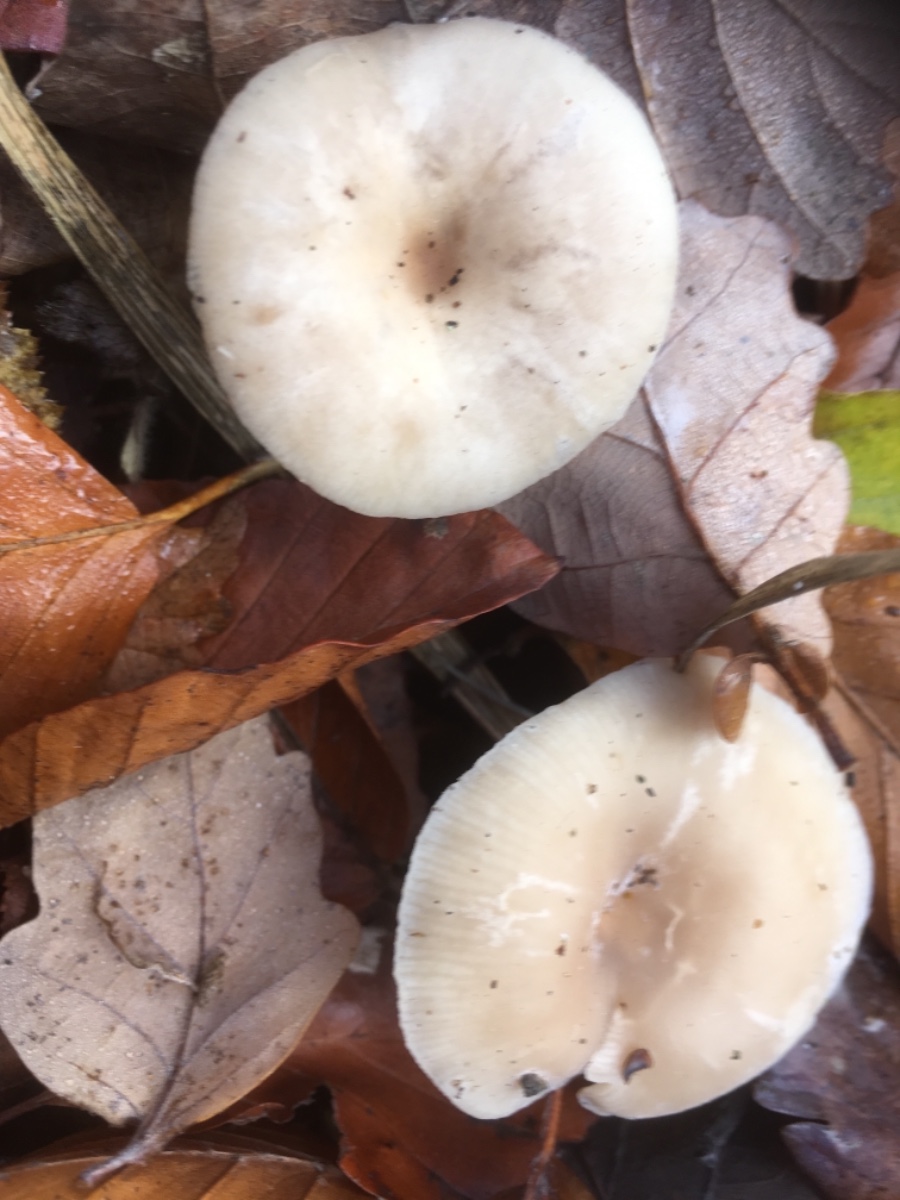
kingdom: Fungi
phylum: Basidiomycota
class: Agaricomycetes
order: Agaricales
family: Tricholomataceae
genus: Clitocybe
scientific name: Clitocybe fragrans
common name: vellugtende tragthat
